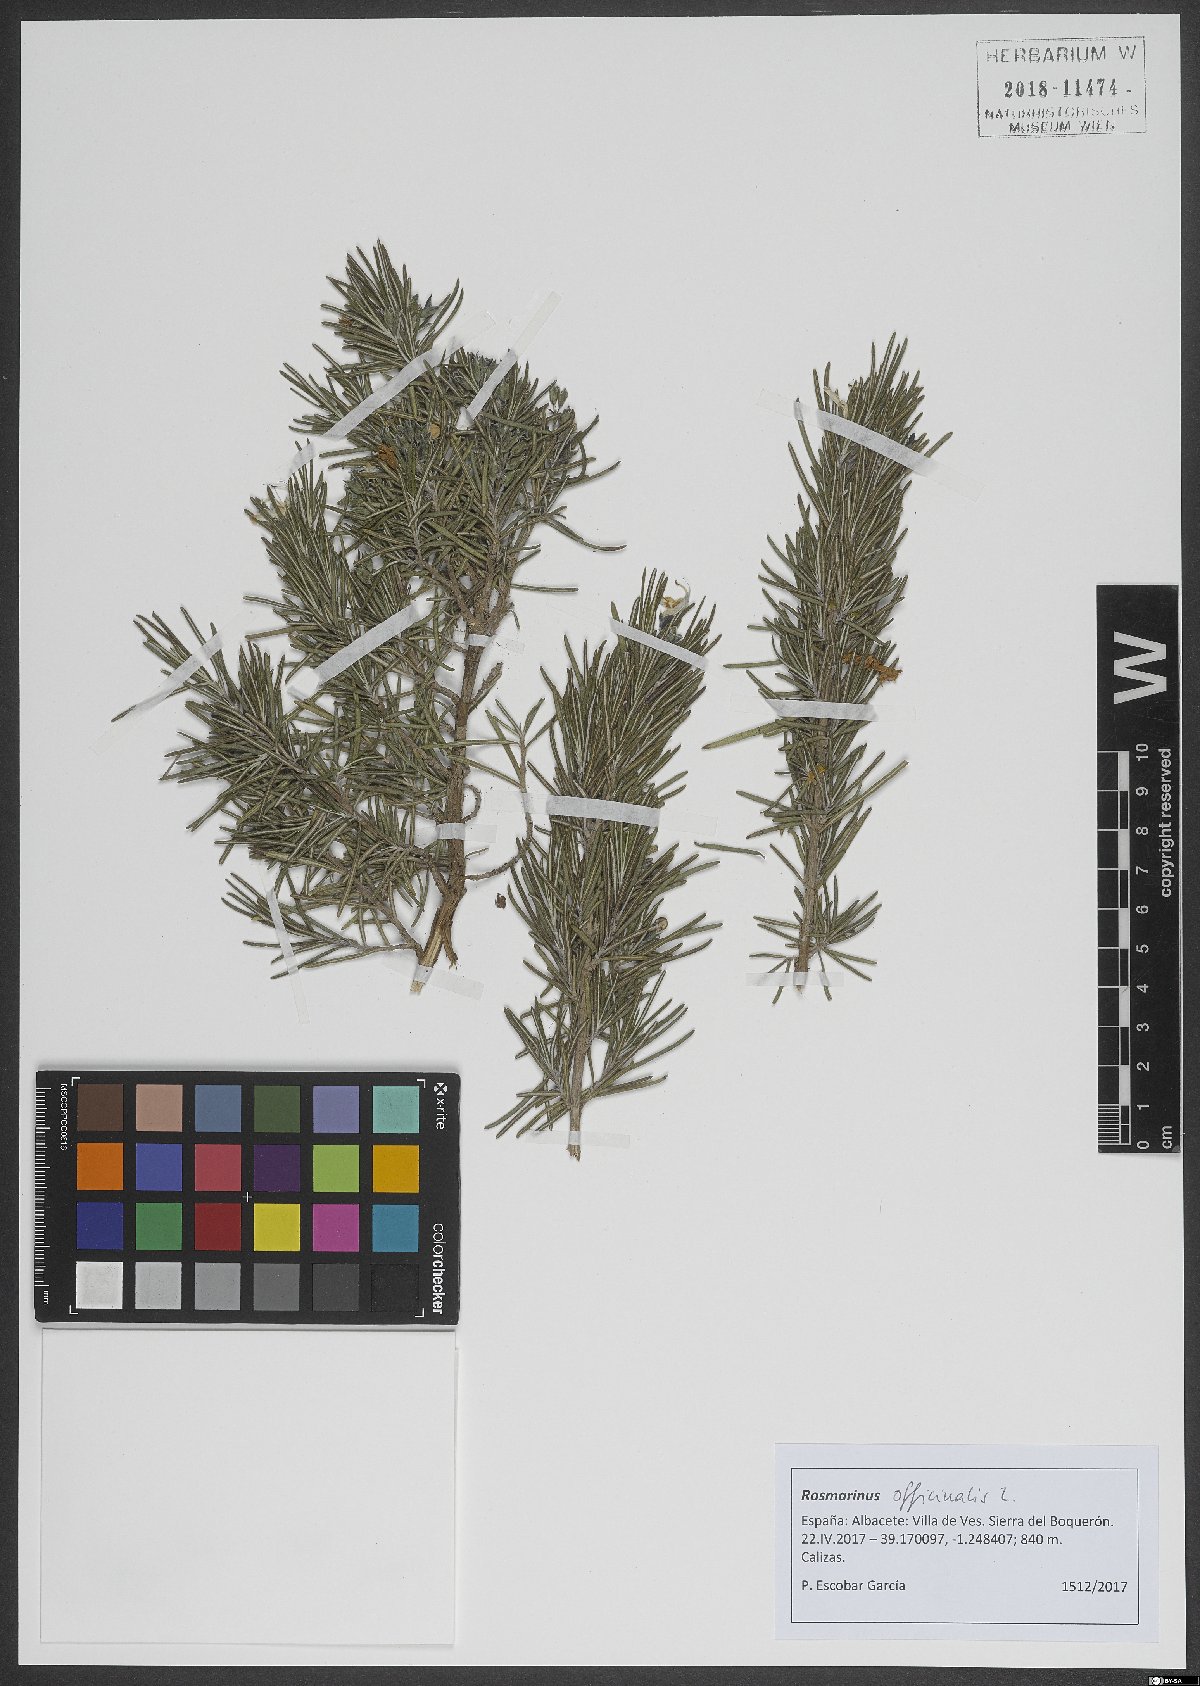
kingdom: Plantae
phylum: Tracheophyta
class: Magnoliopsida
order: Lamiales
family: Lamiaceae
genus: Salvia
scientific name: Salvia rosmarinus
